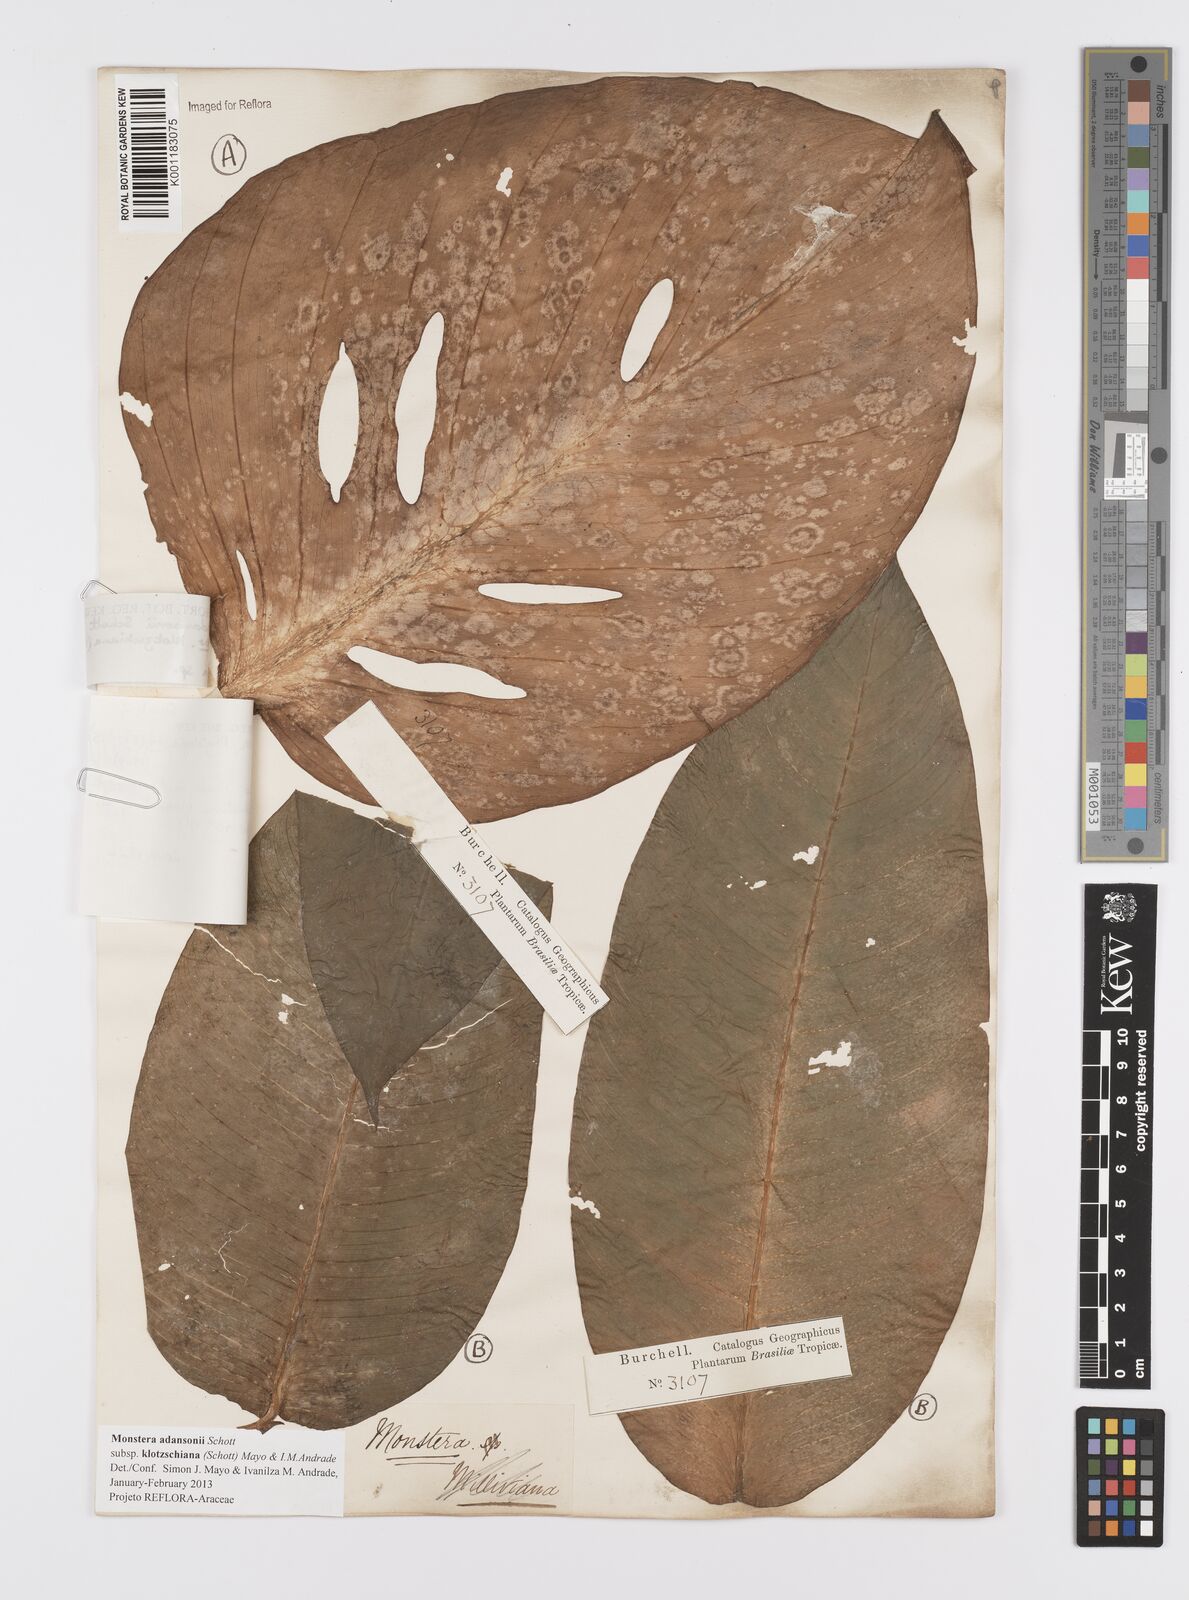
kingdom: Plantae
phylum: Tracheophyta
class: Liliopsida
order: Alismatales
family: Araceae
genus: Monstera
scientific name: Monstera adansonii
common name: Tarovine
